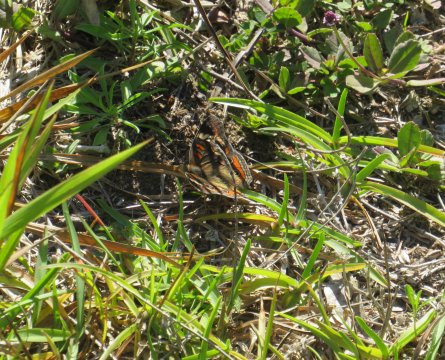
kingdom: Animalia
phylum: Arthropoda
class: Insecta
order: Lepidoptera
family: Nymphalidae
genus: Junonia
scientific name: Junonia coenia
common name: Common Buckeye
